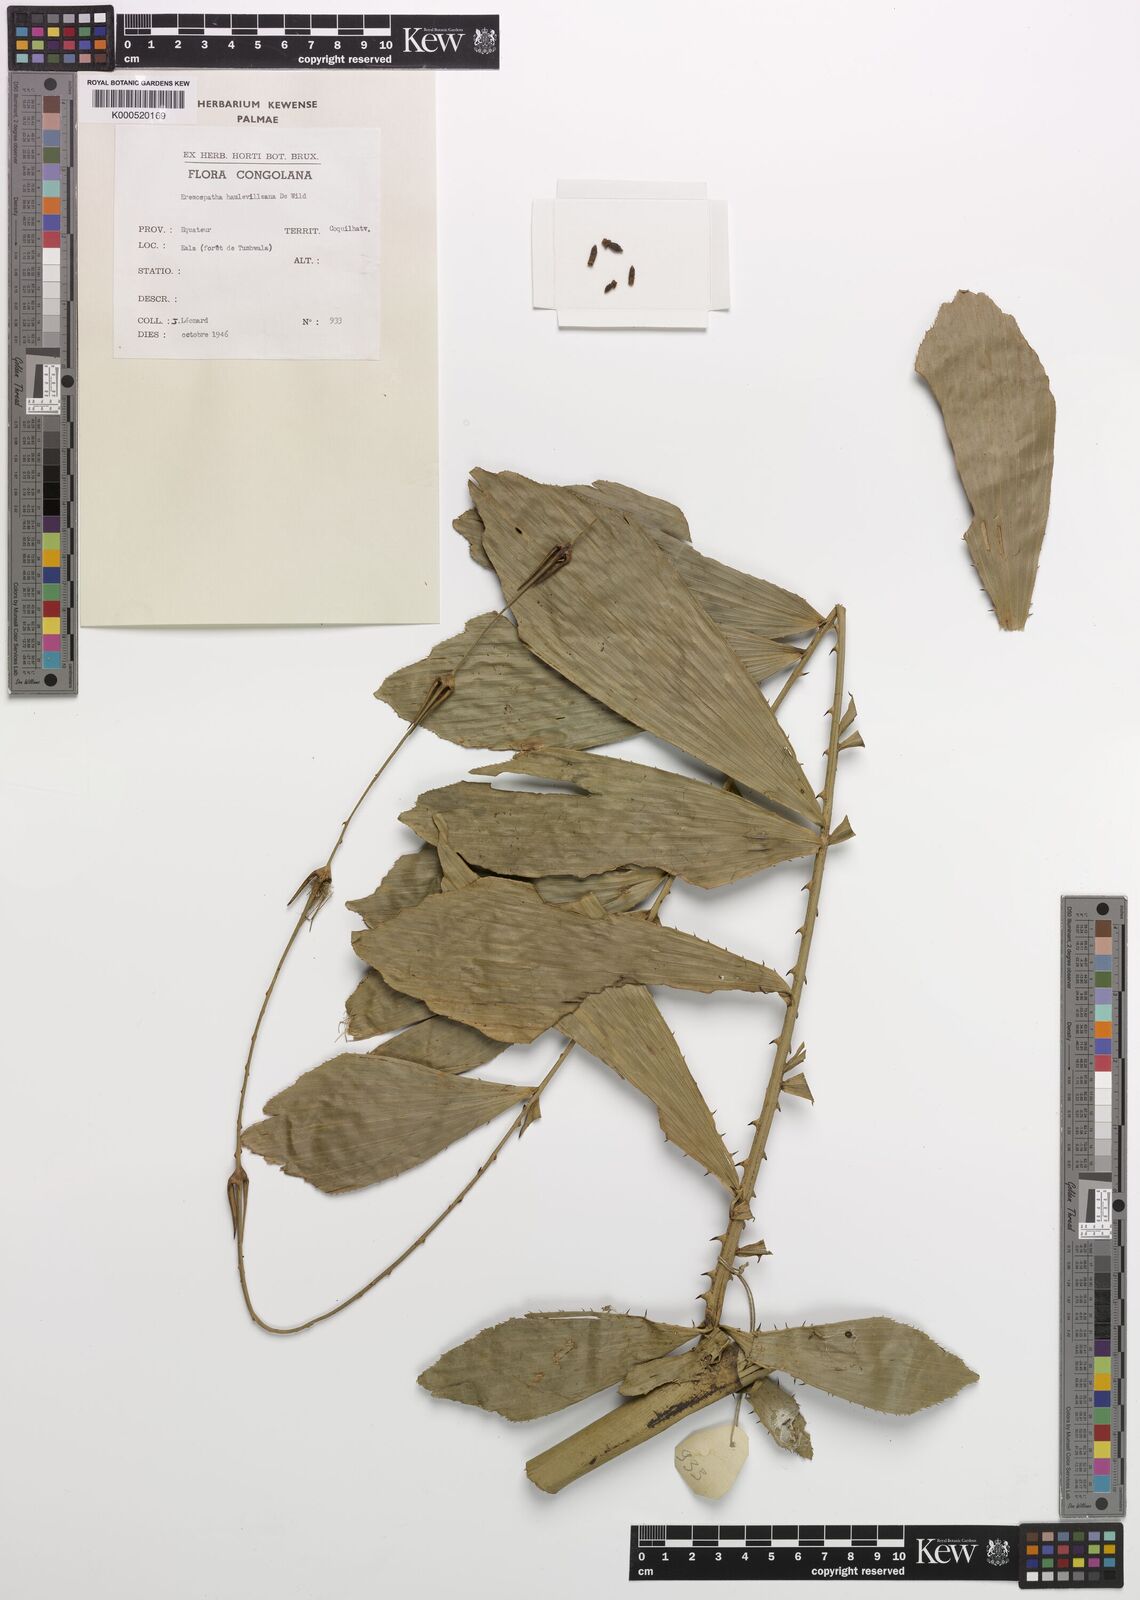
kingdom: Plantae
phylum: Tracheophyta
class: Liliopsida
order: Arecales
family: Arecaceae
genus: Eremospatha
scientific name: Eremospatha haullevilleana
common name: Rattan
